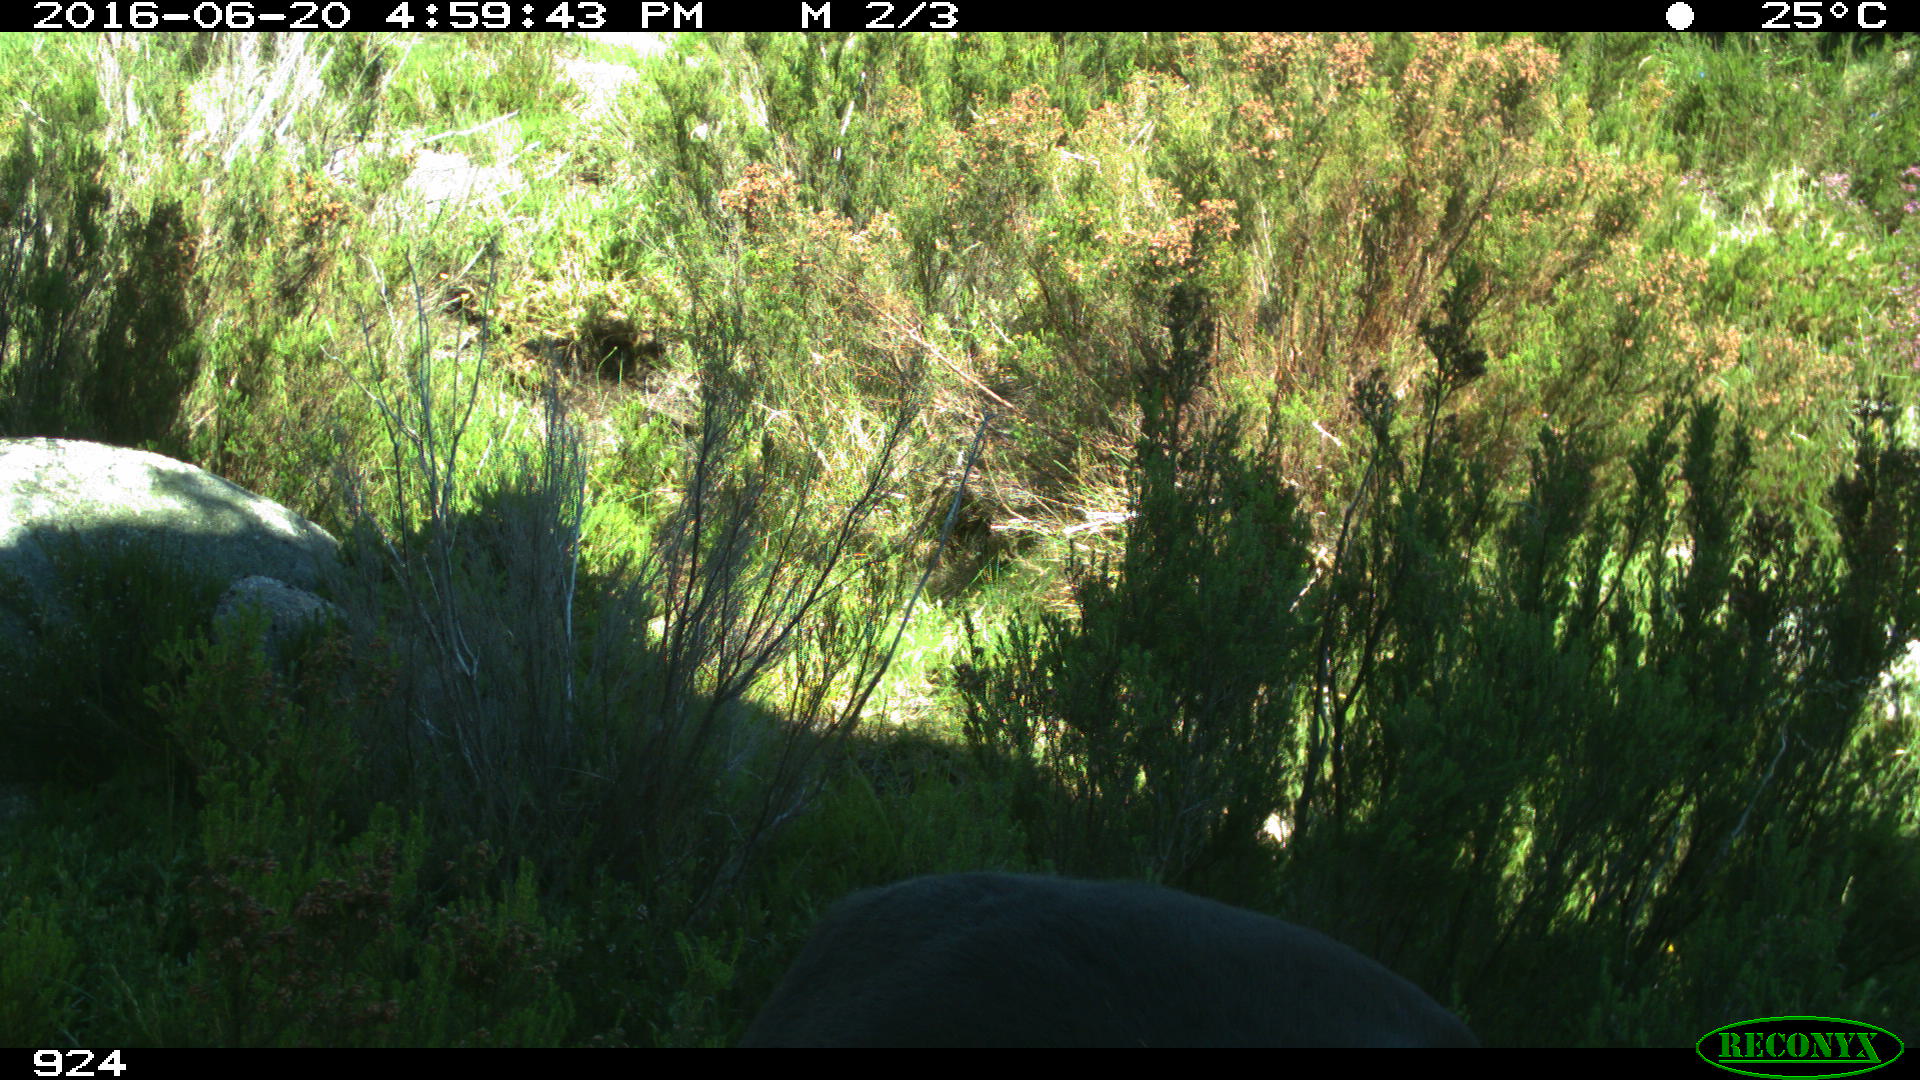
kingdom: Animalia
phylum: Chordata
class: Mammalia
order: Perissodactyla
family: Equidae
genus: Equus
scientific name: Equus caballus
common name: Horse
